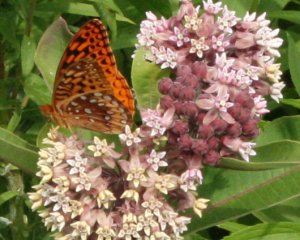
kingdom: Animalia
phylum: Arthropoda
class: Insecta
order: Lepidoptera
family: Nymphalidae
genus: Speyeria
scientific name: Speyeria cybele
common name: Great Spangled Fritillary
